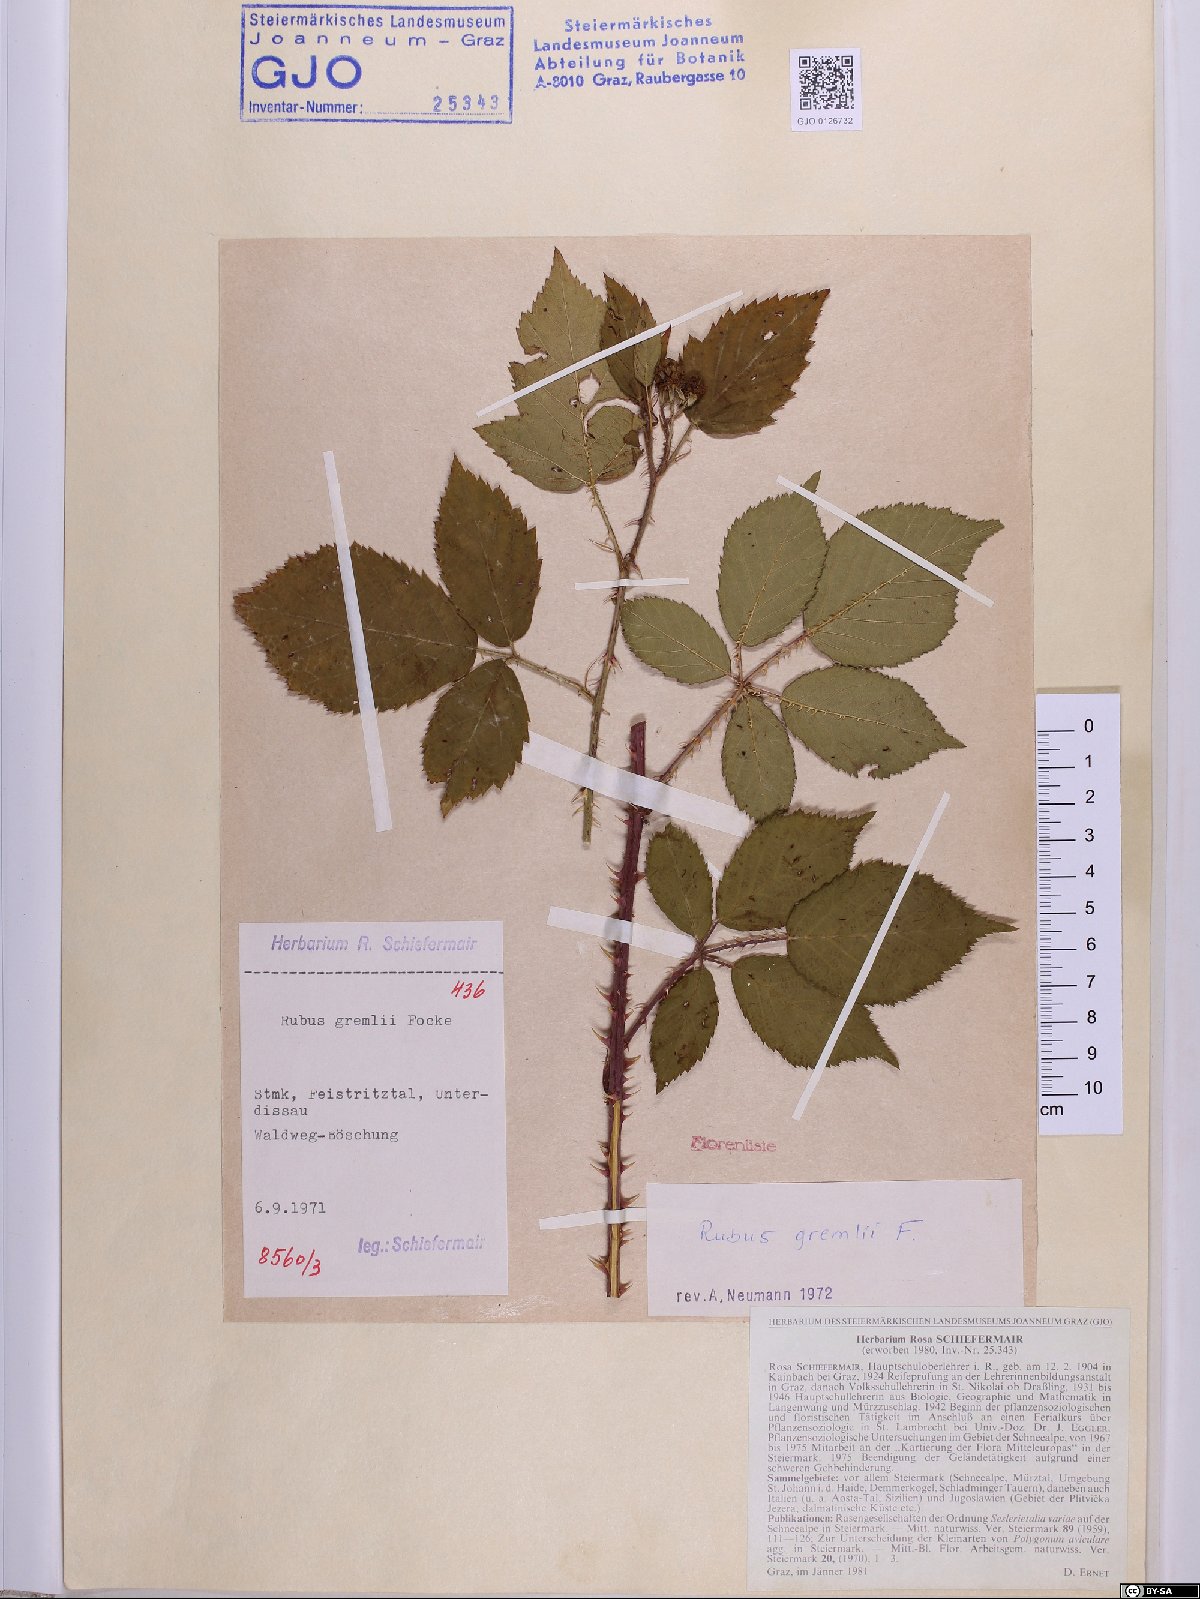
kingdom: Plantae
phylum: Tracheophyta
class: Magnoliopsida
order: Rosales
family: Rosaceae
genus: Rubus
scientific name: Rubus gremlii
